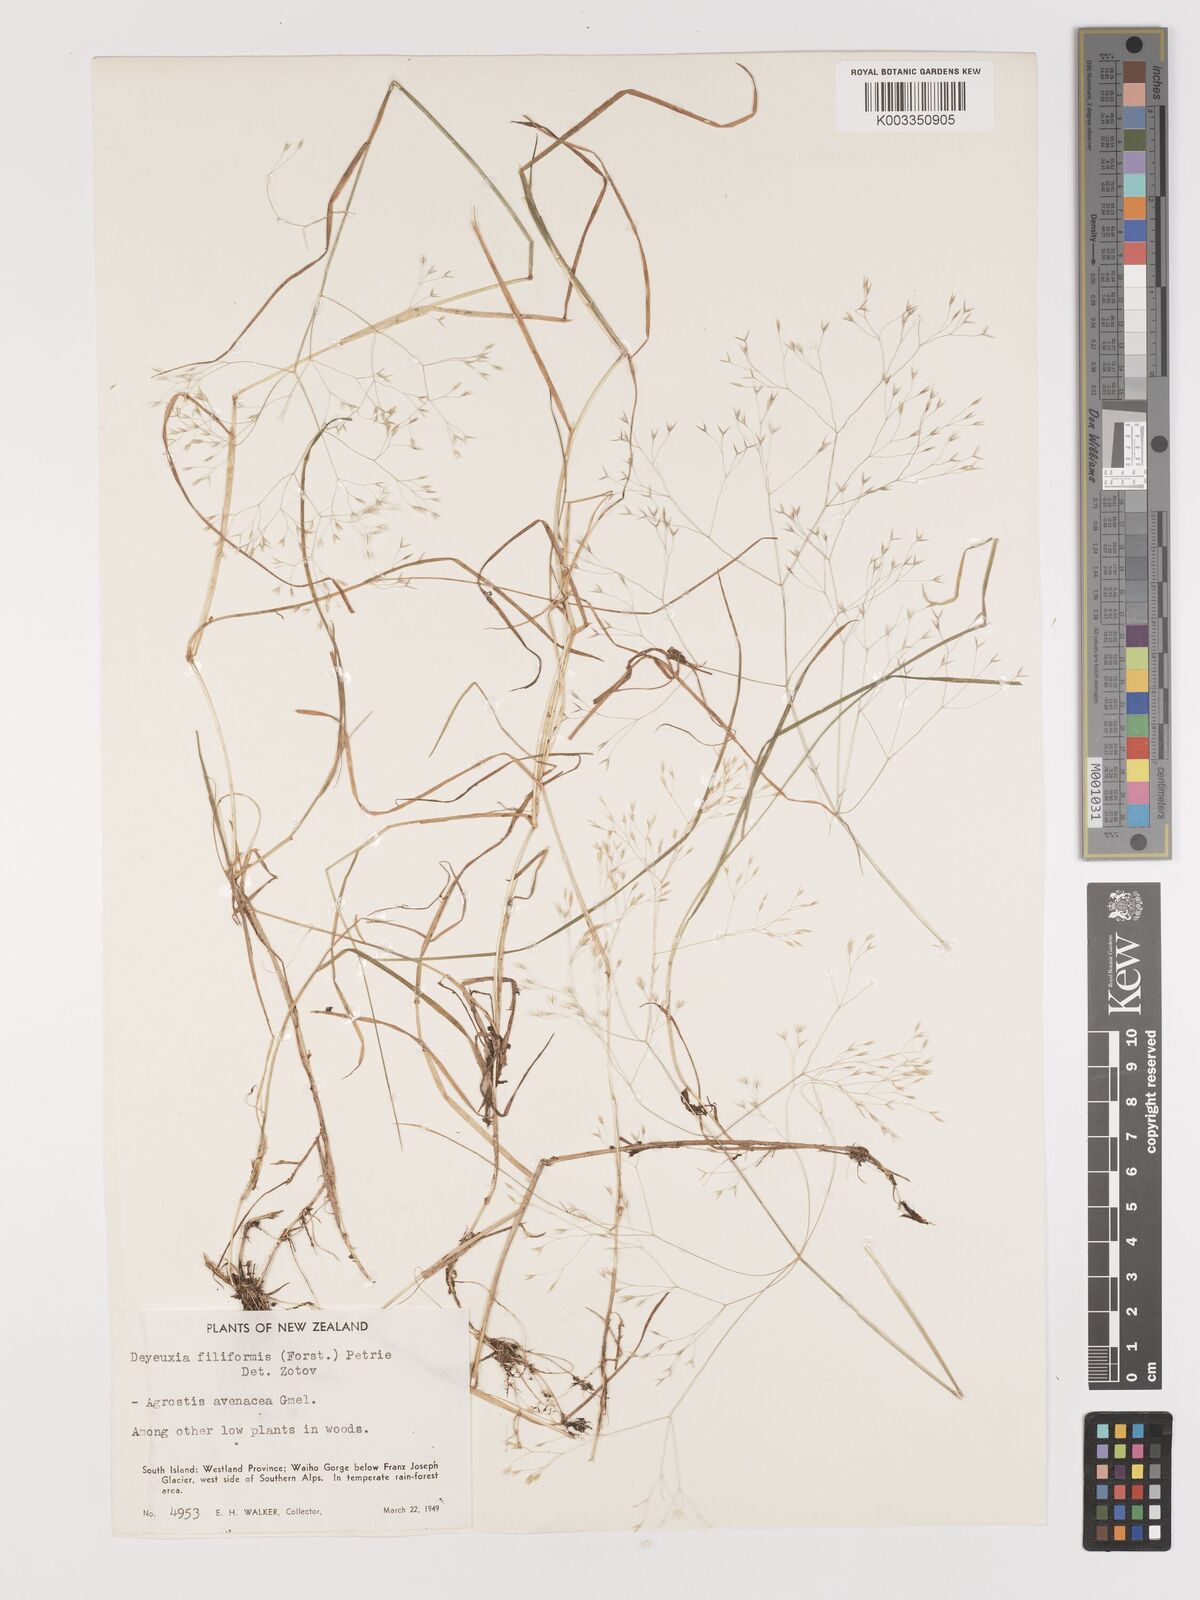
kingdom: Plantae
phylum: Tracheophyta
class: Liliopsida
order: Poales
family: Poaceae
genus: Lachnagrostis
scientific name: Lachnagrostis filiformis
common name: Bentgrass
